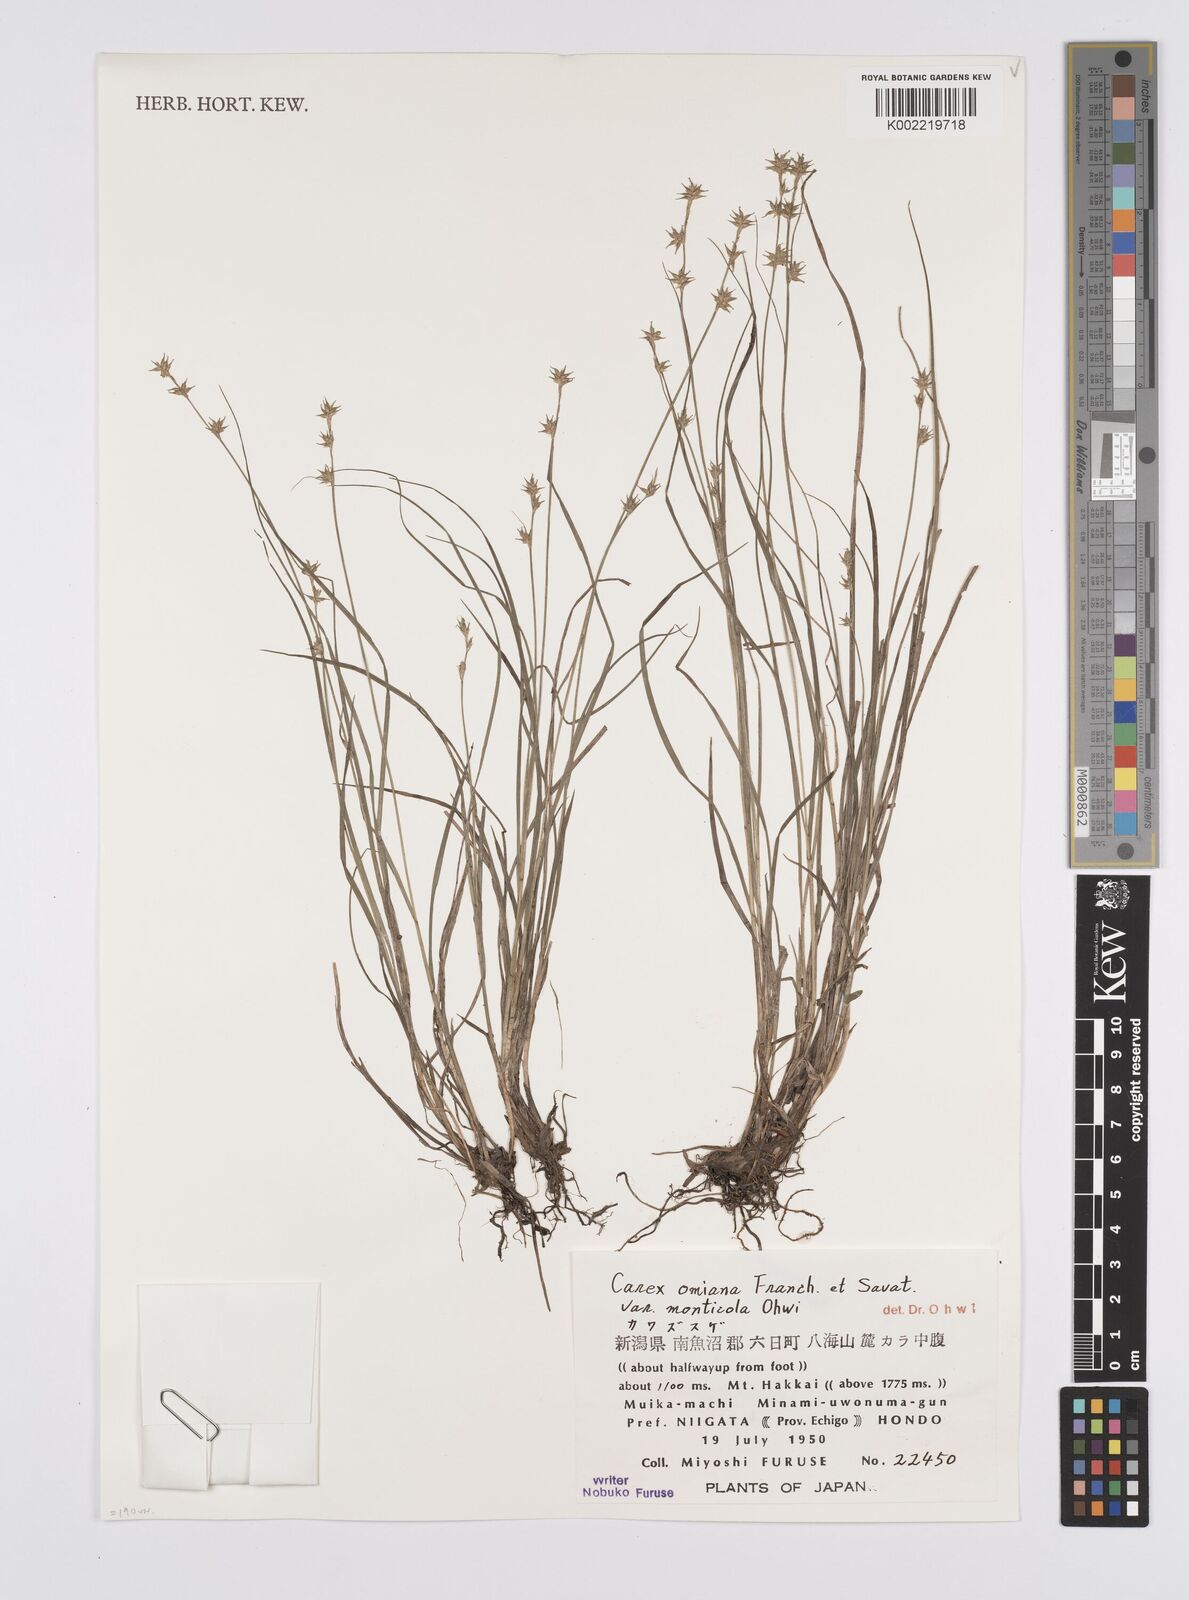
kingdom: Plantae
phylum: Tracheophyta
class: Liliopsida
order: Poales
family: Cyperaceae
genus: Carex
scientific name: Carex omiana
